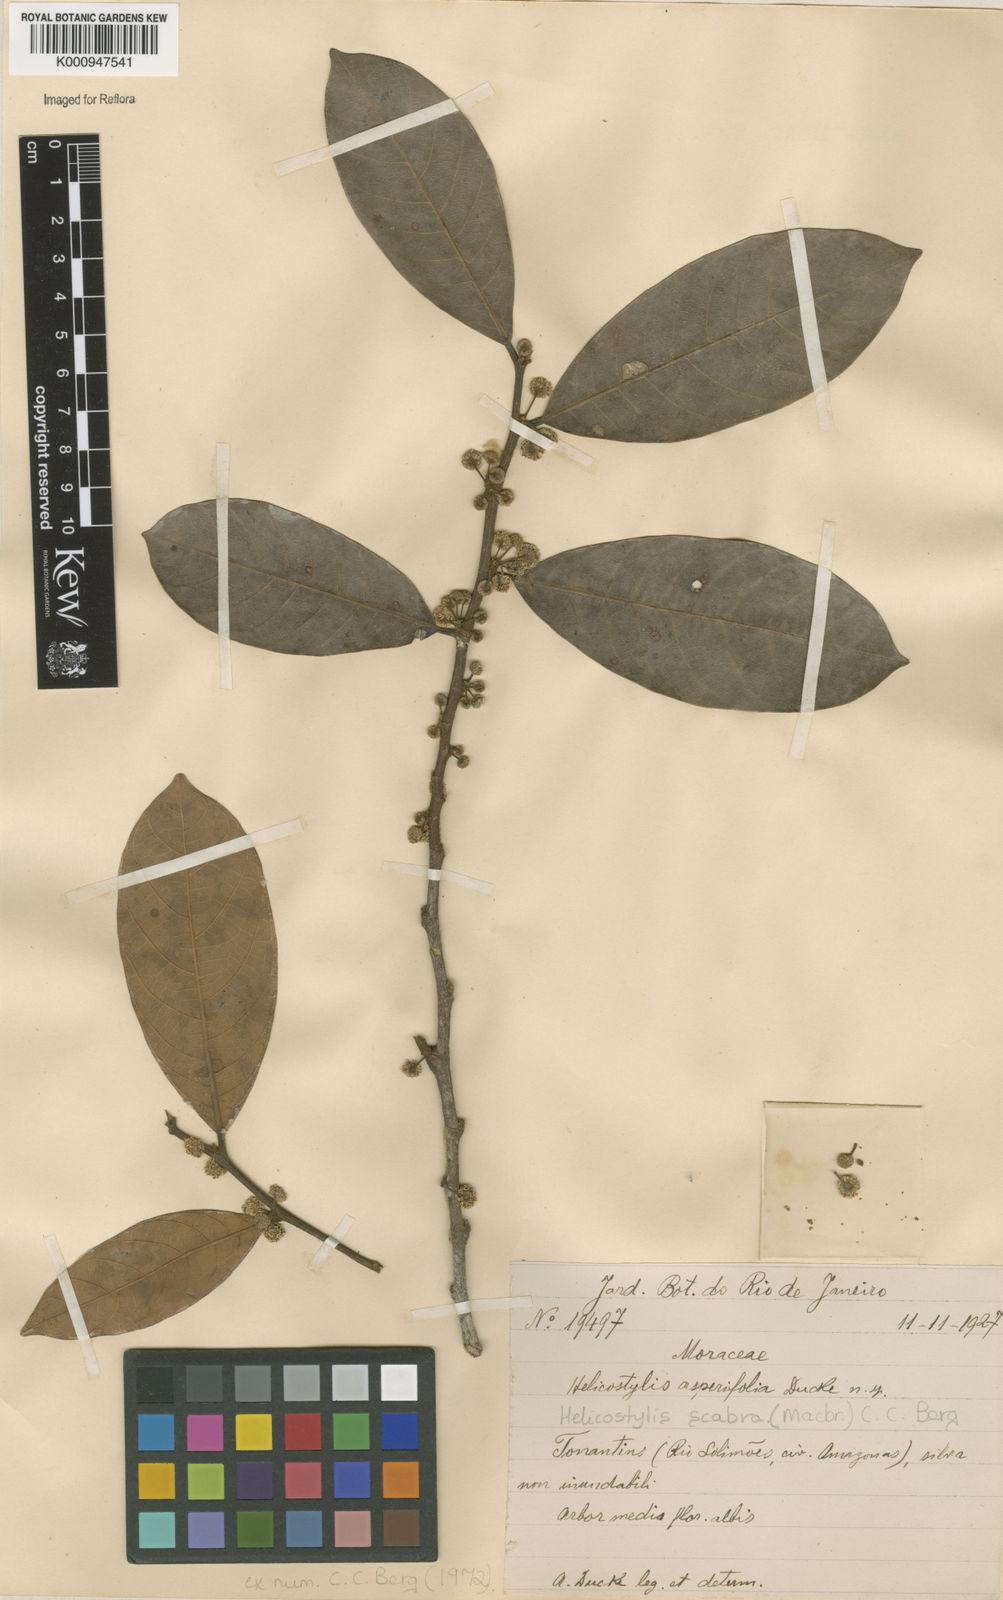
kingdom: Plantae
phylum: Tracheophyta
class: Magnoliopsida
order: Rosales
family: Moraceae
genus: Helicostylis
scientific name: Helicostylis scabra
